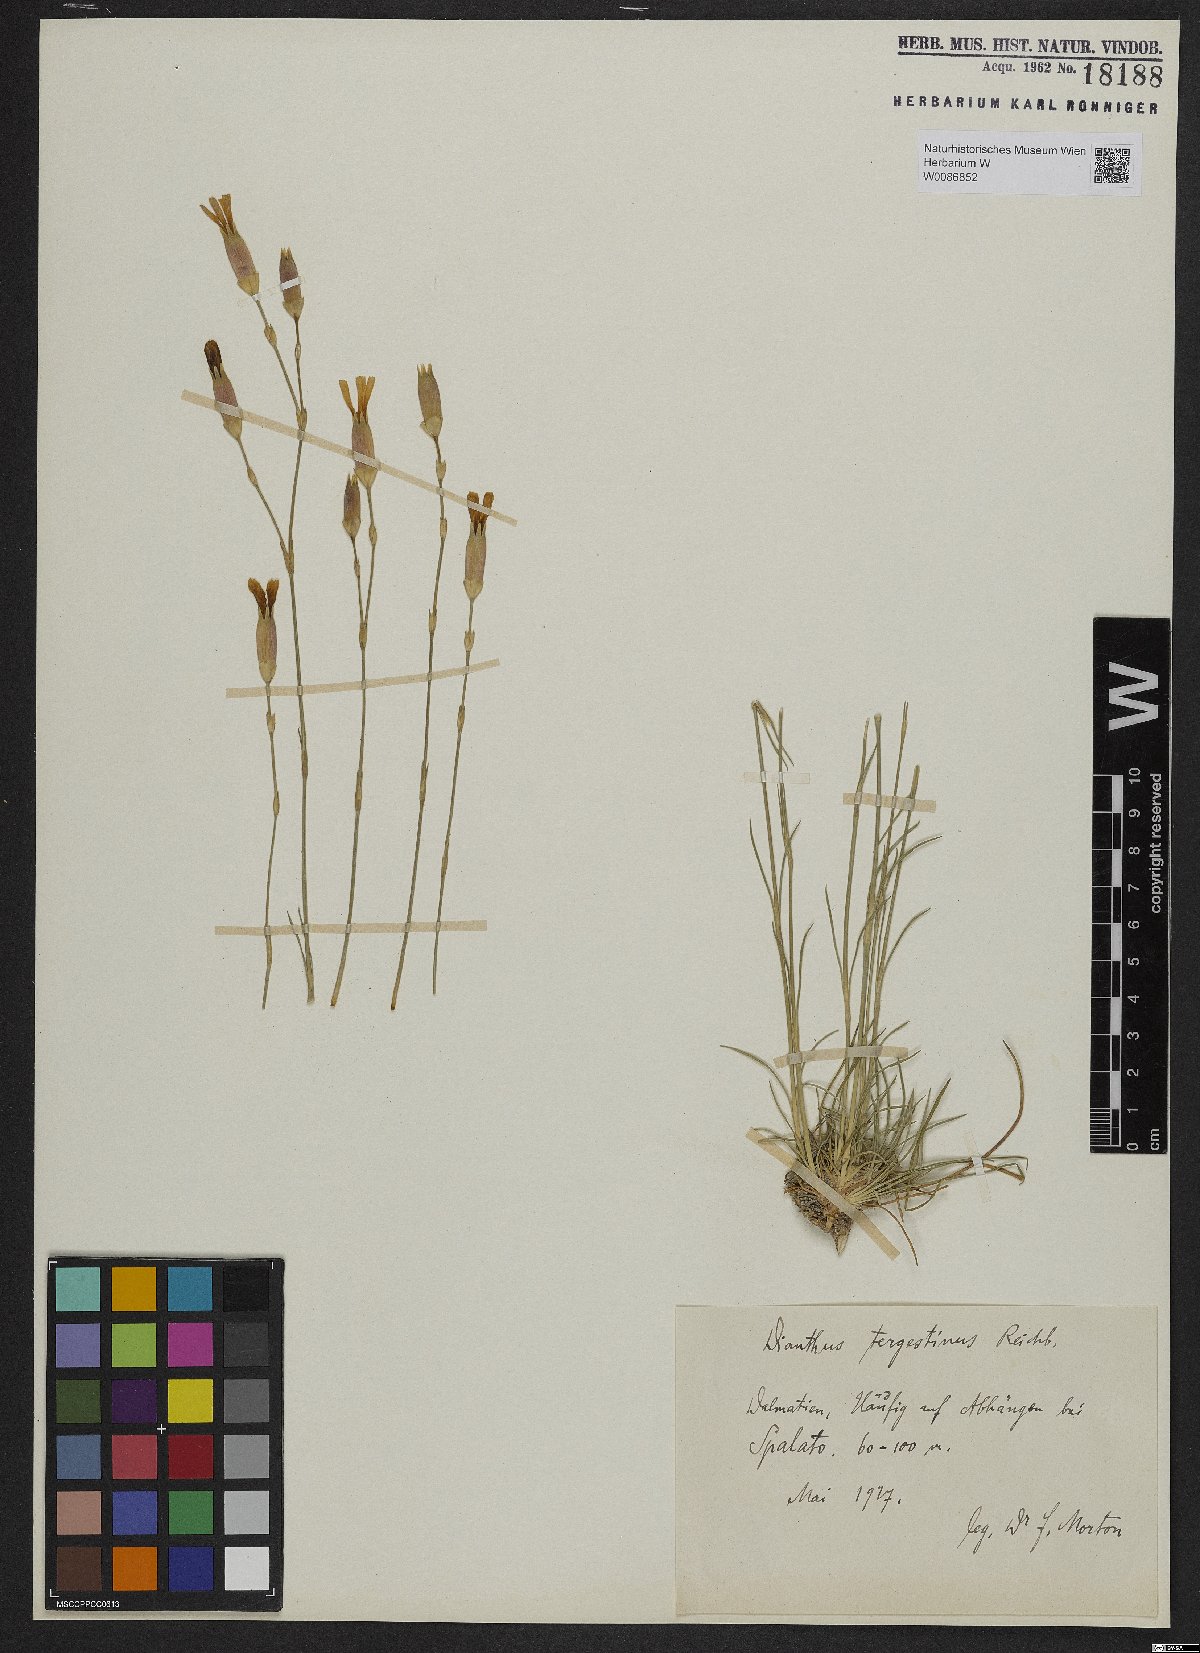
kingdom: Plantae
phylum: Tracheophyta
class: Magnoliopsida
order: Caryophyllales
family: Caryophyllaceae
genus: Dianthus
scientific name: Dianthus sylvestris
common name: Wood pink
